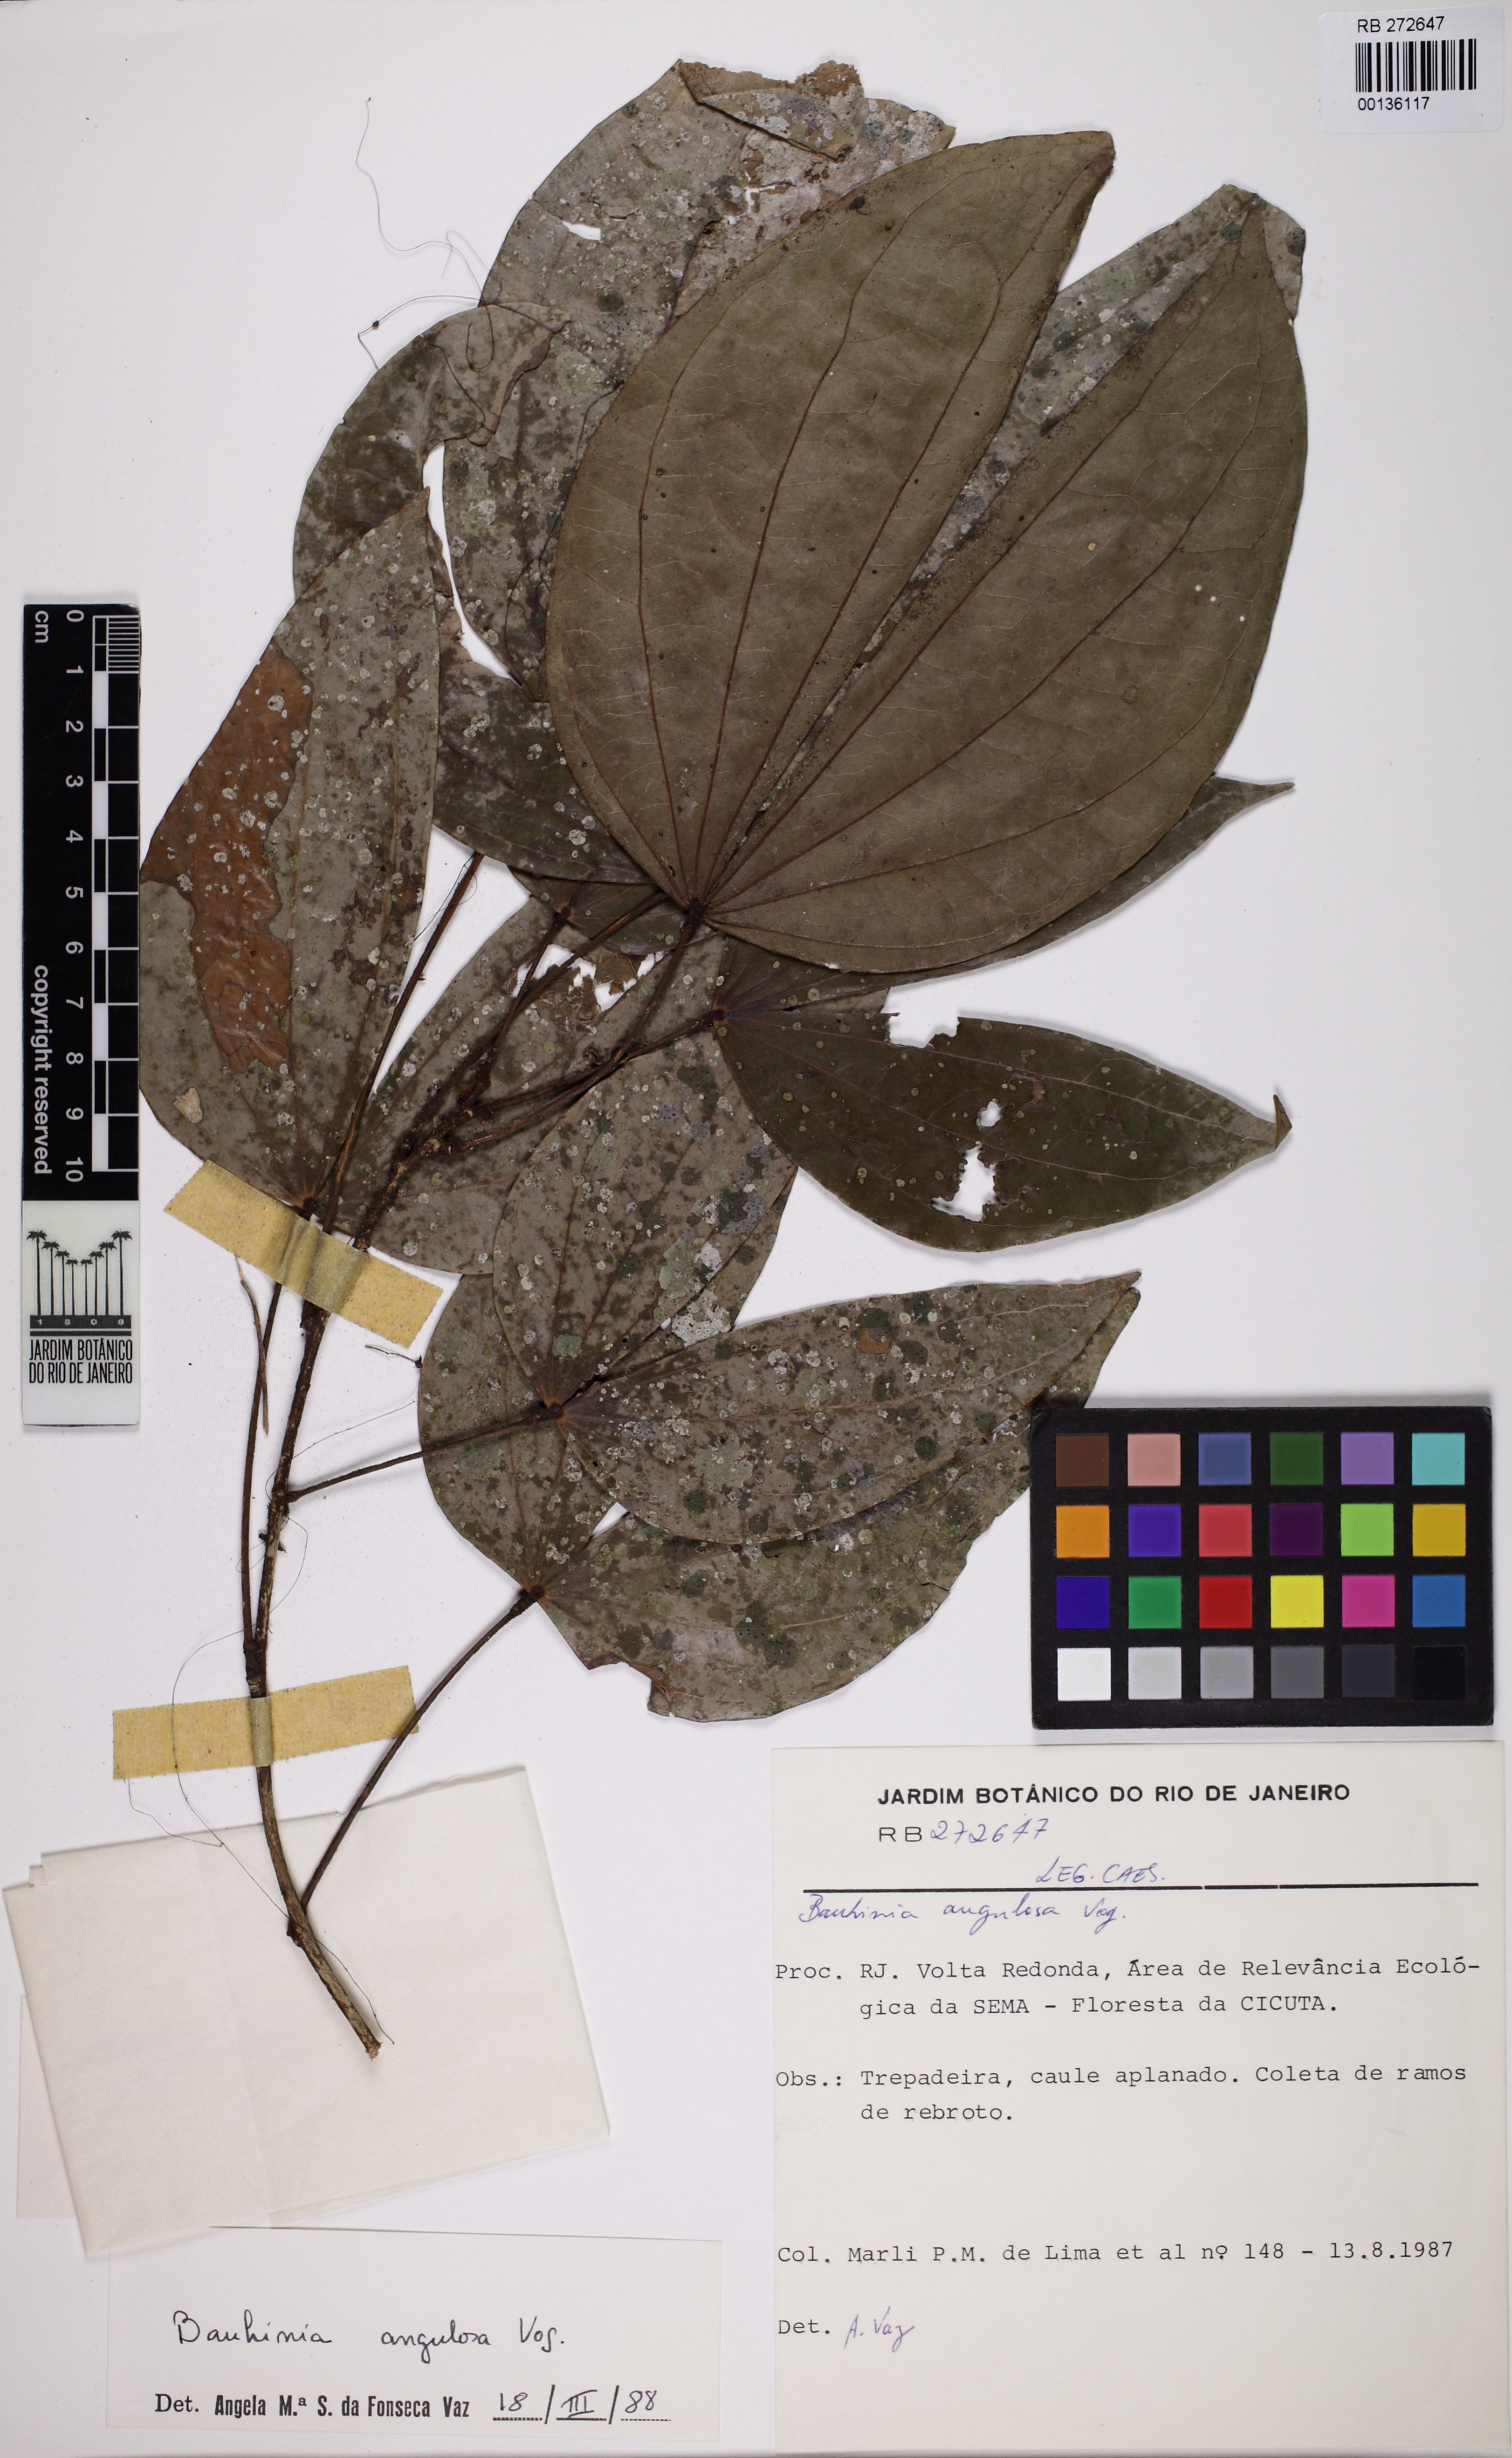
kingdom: Plantae
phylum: Tracheophyta
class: Magnoliopsida
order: Fabales
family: Fabaceae
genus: Schnella
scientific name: Schnella angulosa
